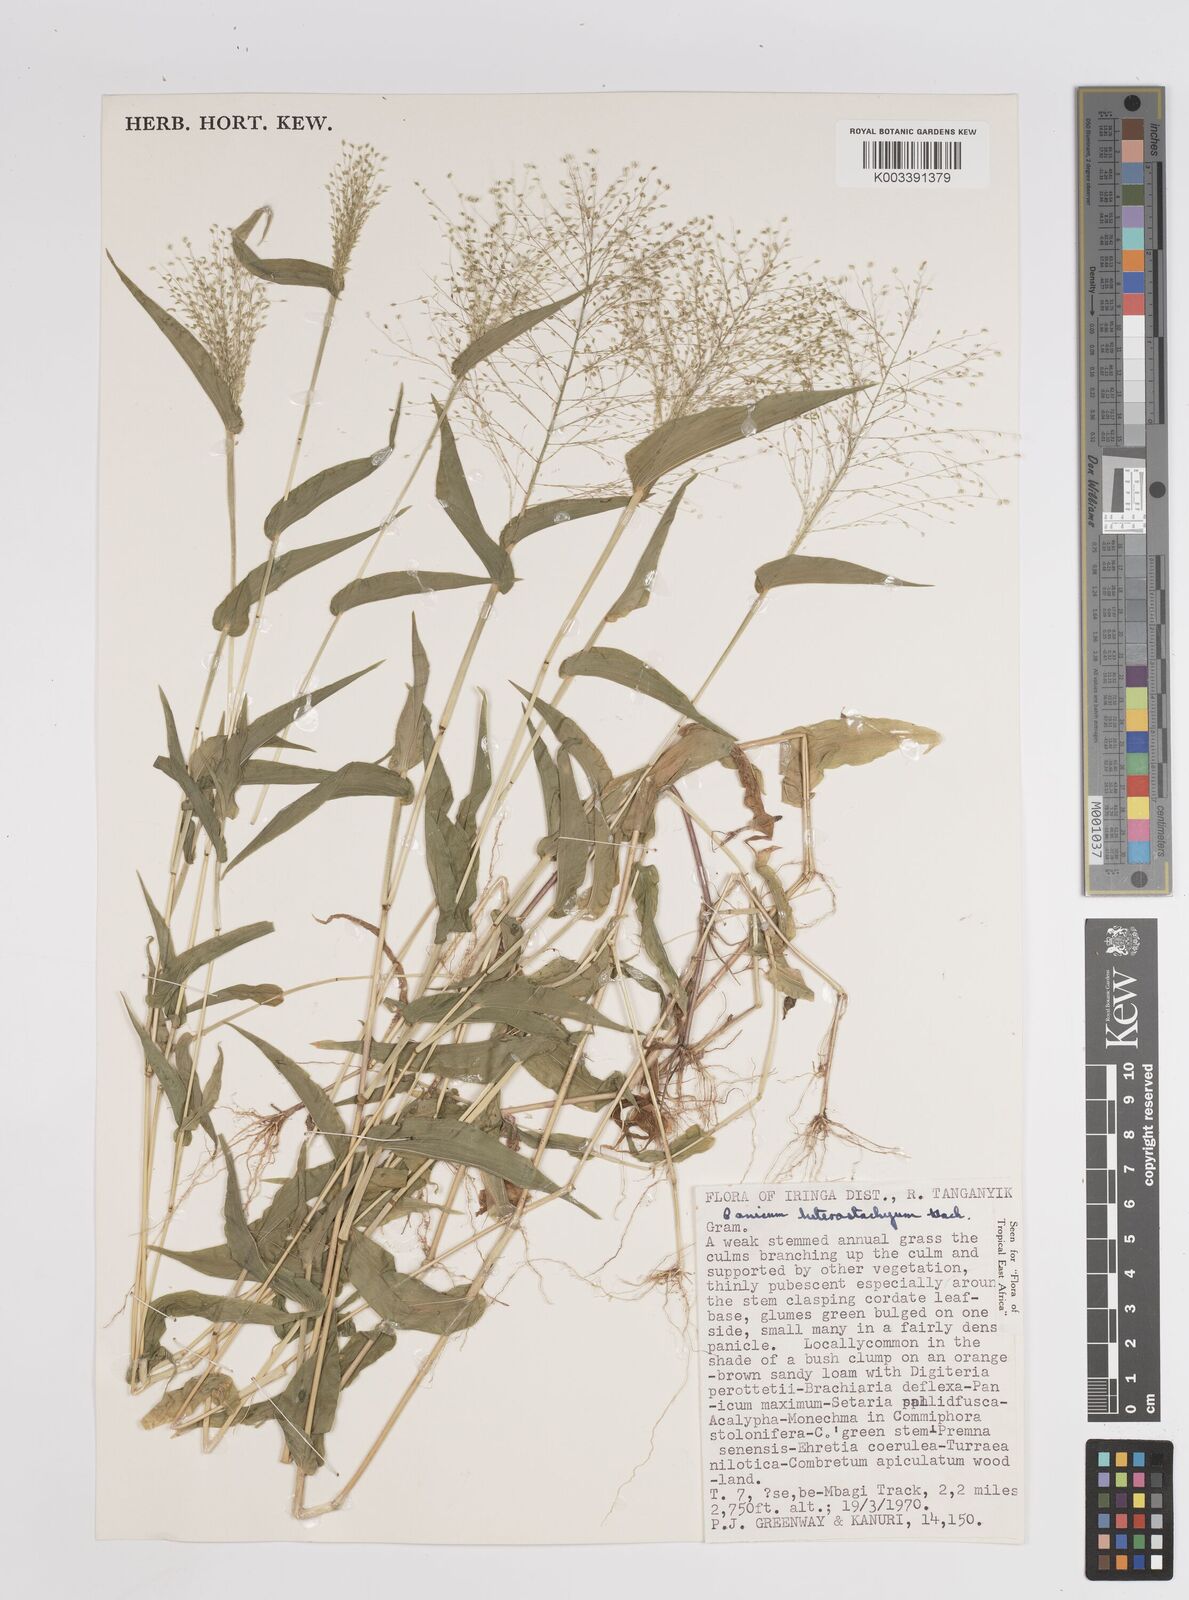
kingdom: Plantae
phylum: Tracheophyta
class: Liliopsida
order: Poales
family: Poaceae
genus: Panicum
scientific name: Panicum hirtum
